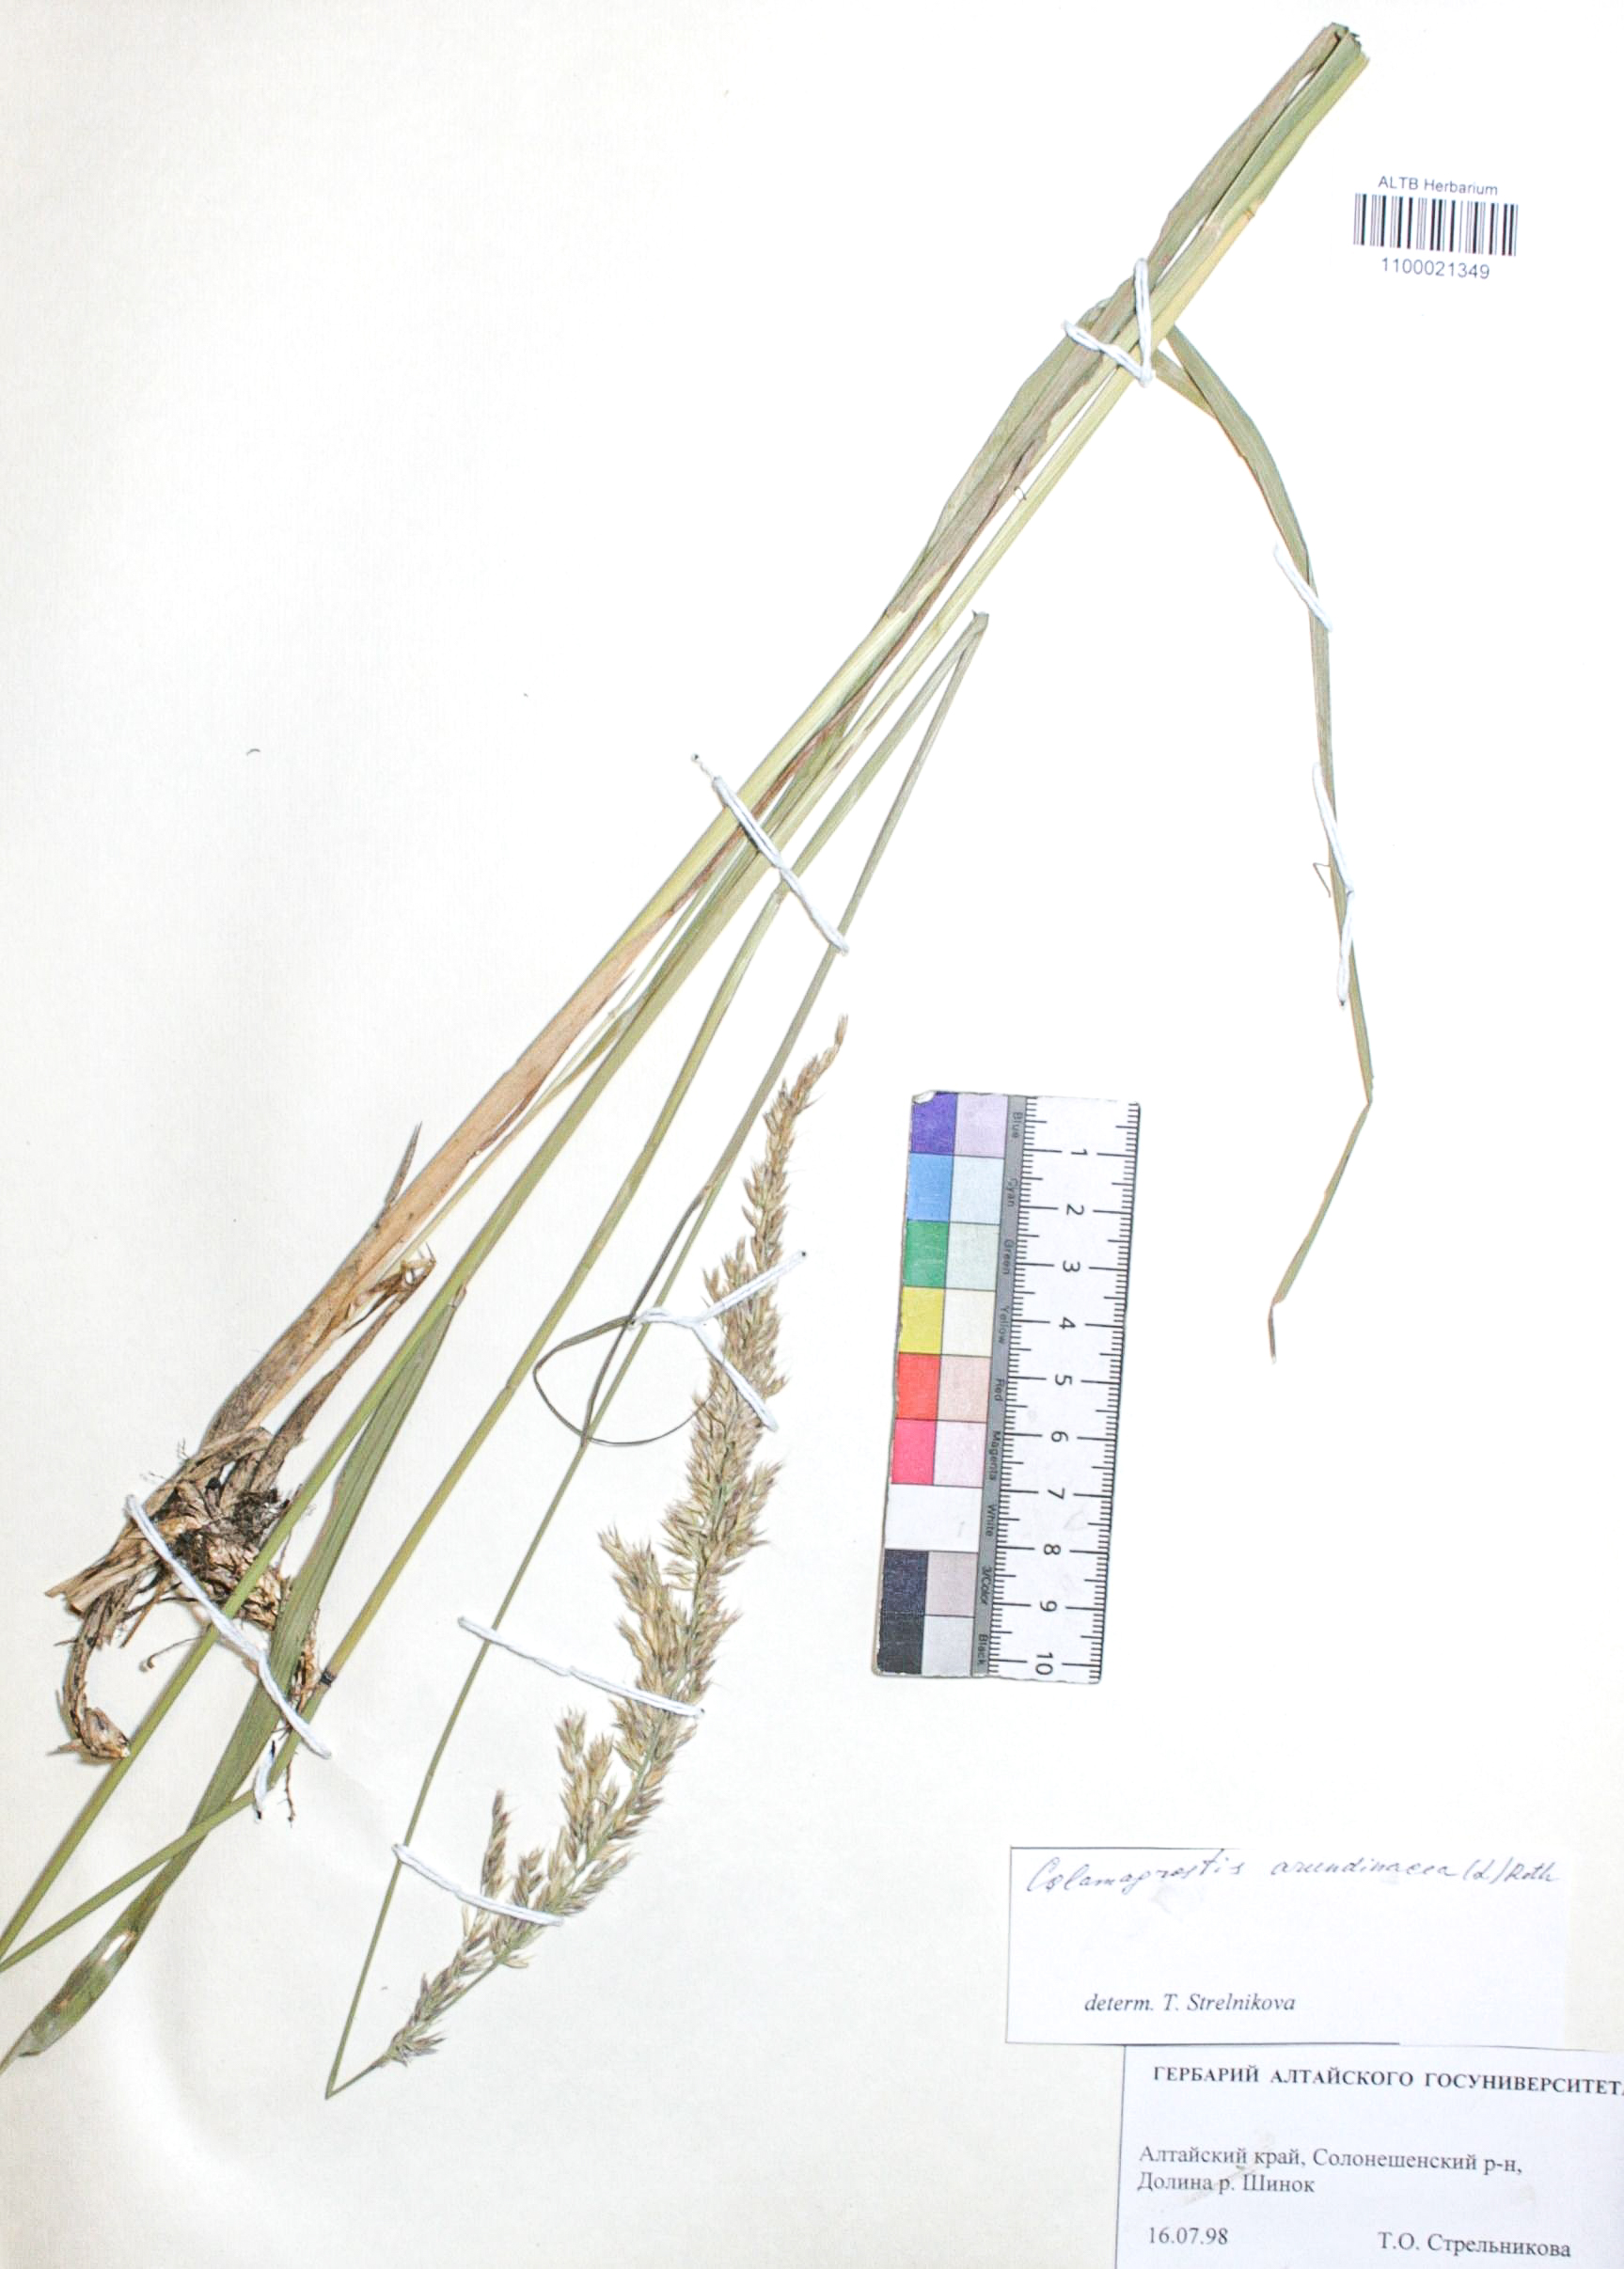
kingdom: Plantae
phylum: Tracheophyta
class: Liliopsida
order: Poales
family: Poaceae
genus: Calamagrostis
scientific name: Calamagrostis arundinacea
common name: Metskastik
